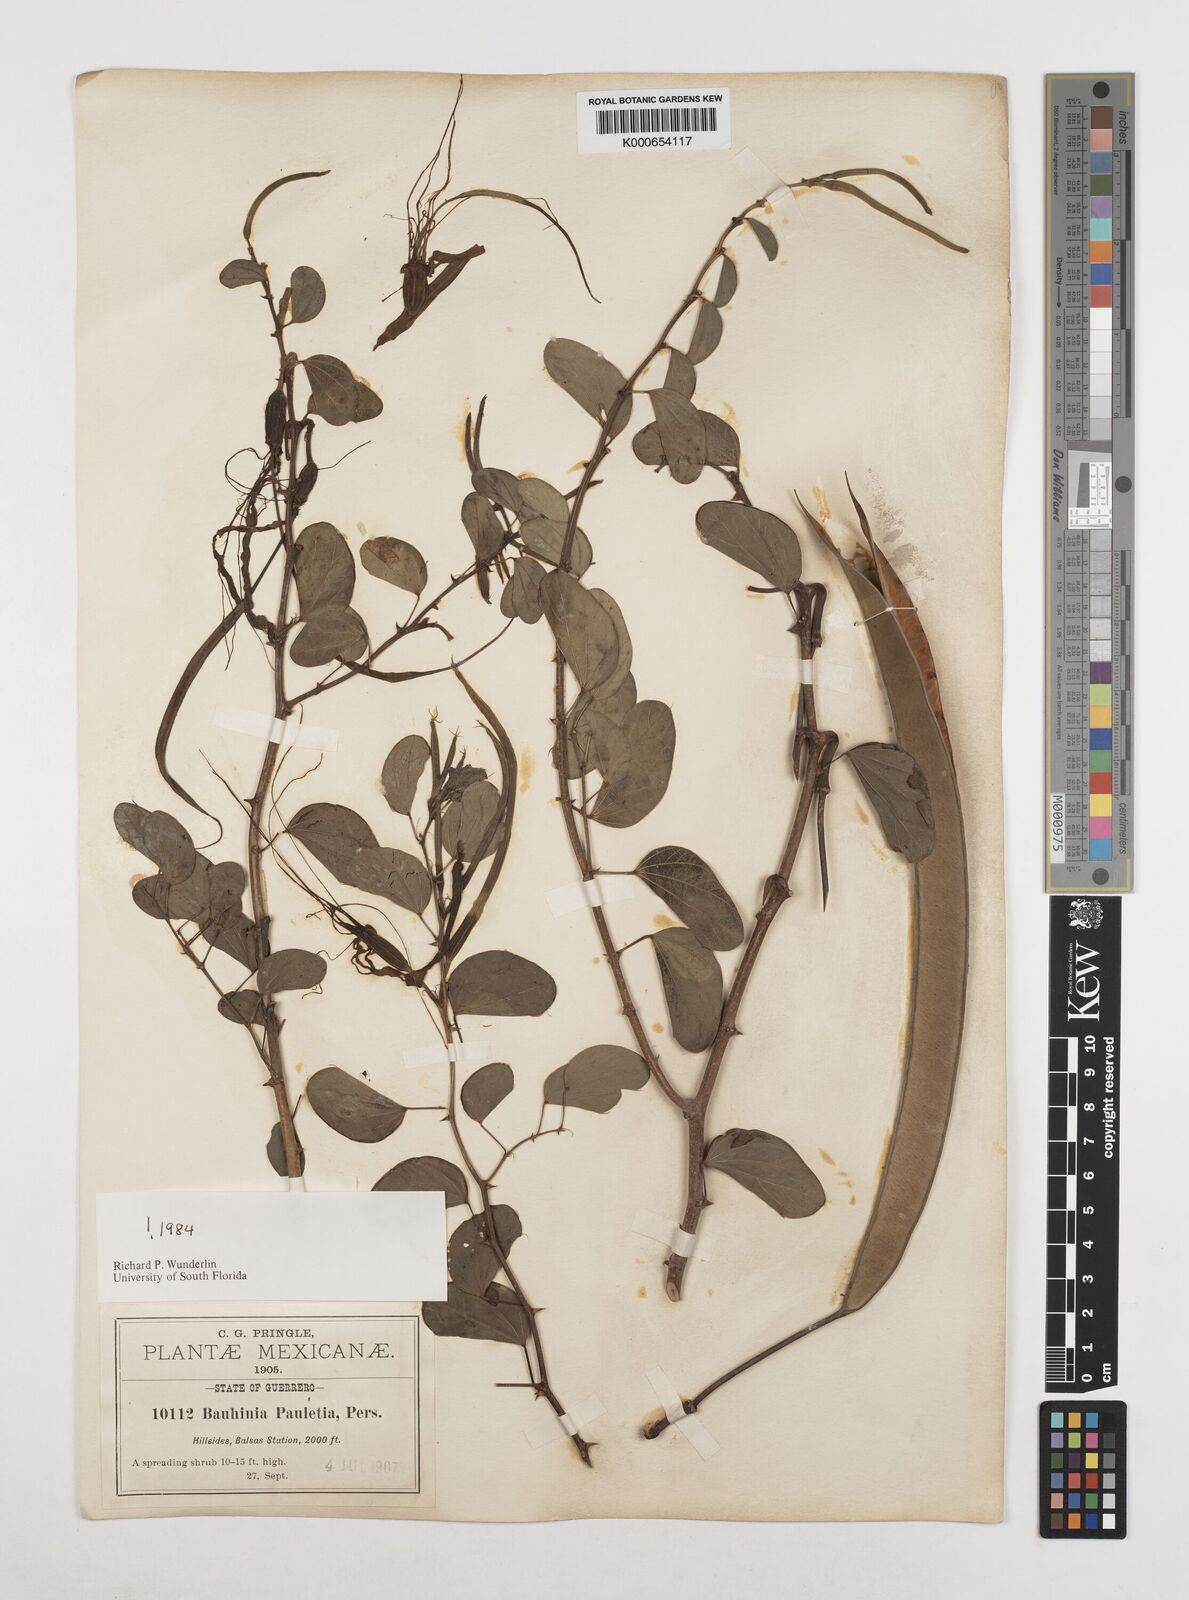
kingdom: Plantae
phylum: Tracheophyta
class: Magnoliopsida
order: Fabales
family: Fabaceae
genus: Bauhinia
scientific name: Bauhinia pauletia
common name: Railway-fence bauhinia
